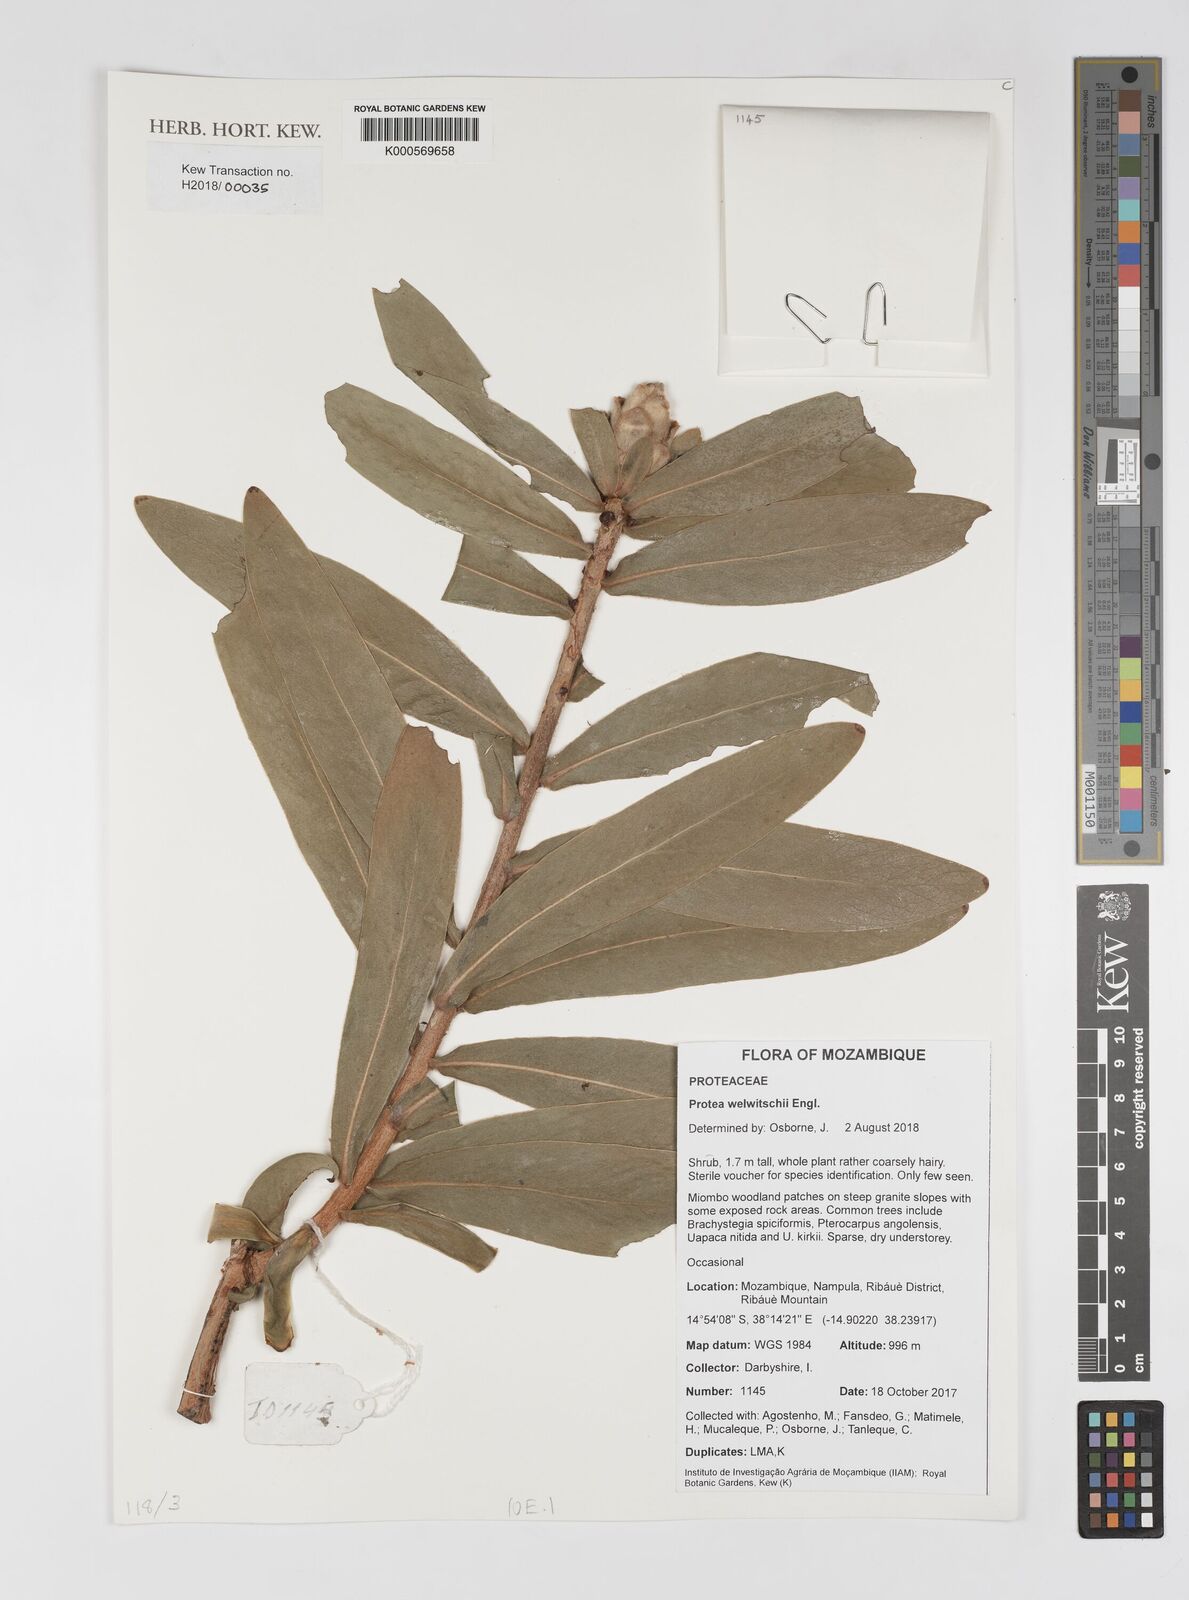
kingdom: Plantae
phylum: Tracheophyta
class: Magnoliopsida
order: Proteales
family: Proteaceae
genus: Protea
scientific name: Protea welwitschii
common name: Cluster-head protea
